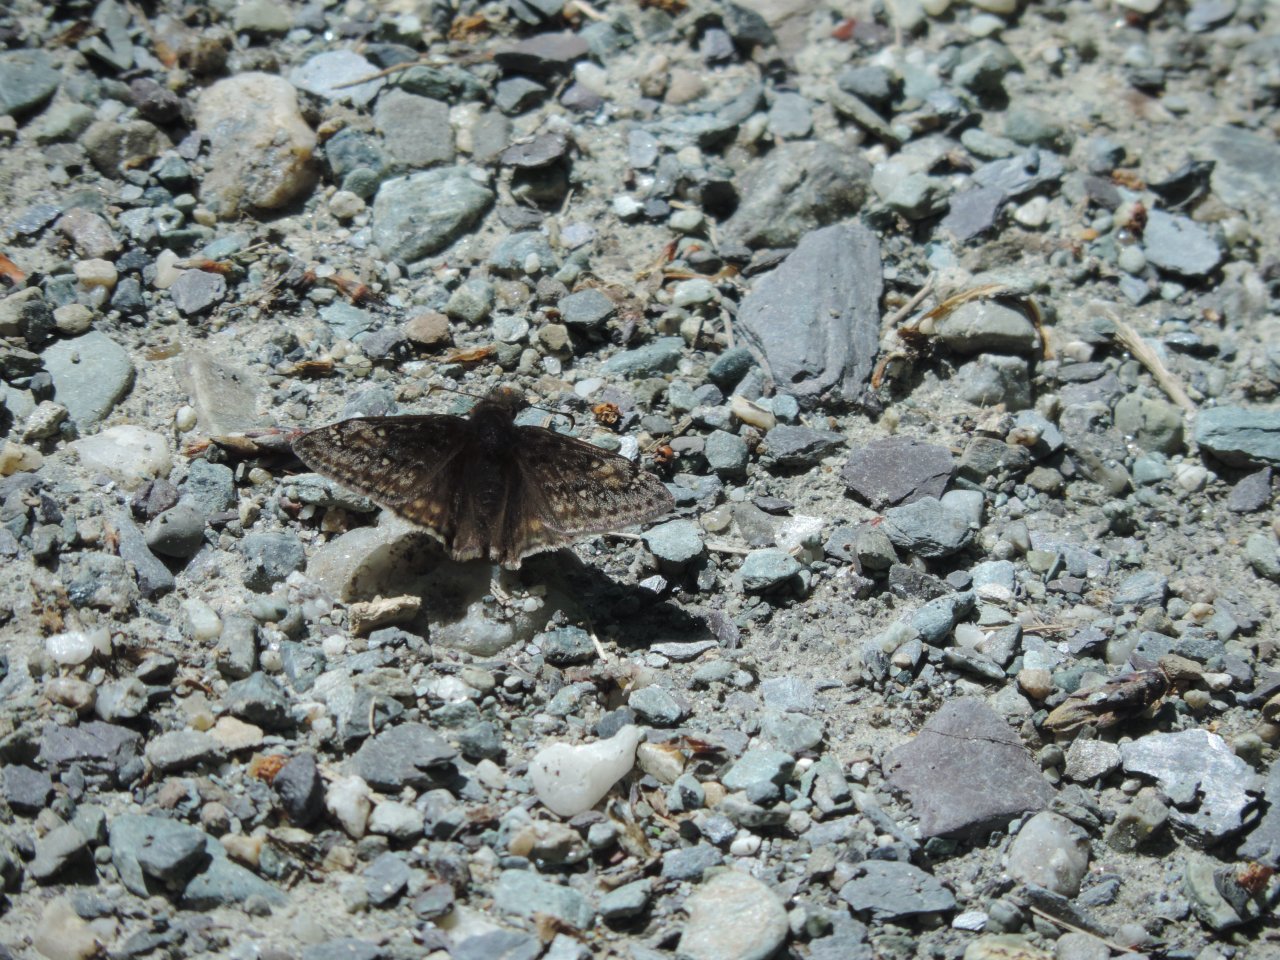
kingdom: Animalia
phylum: Arthropoda
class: Insecta
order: Lepidoptera
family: Hesperiidae
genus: Gesta
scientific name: Gesta
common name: Juvenal's Duskywing
